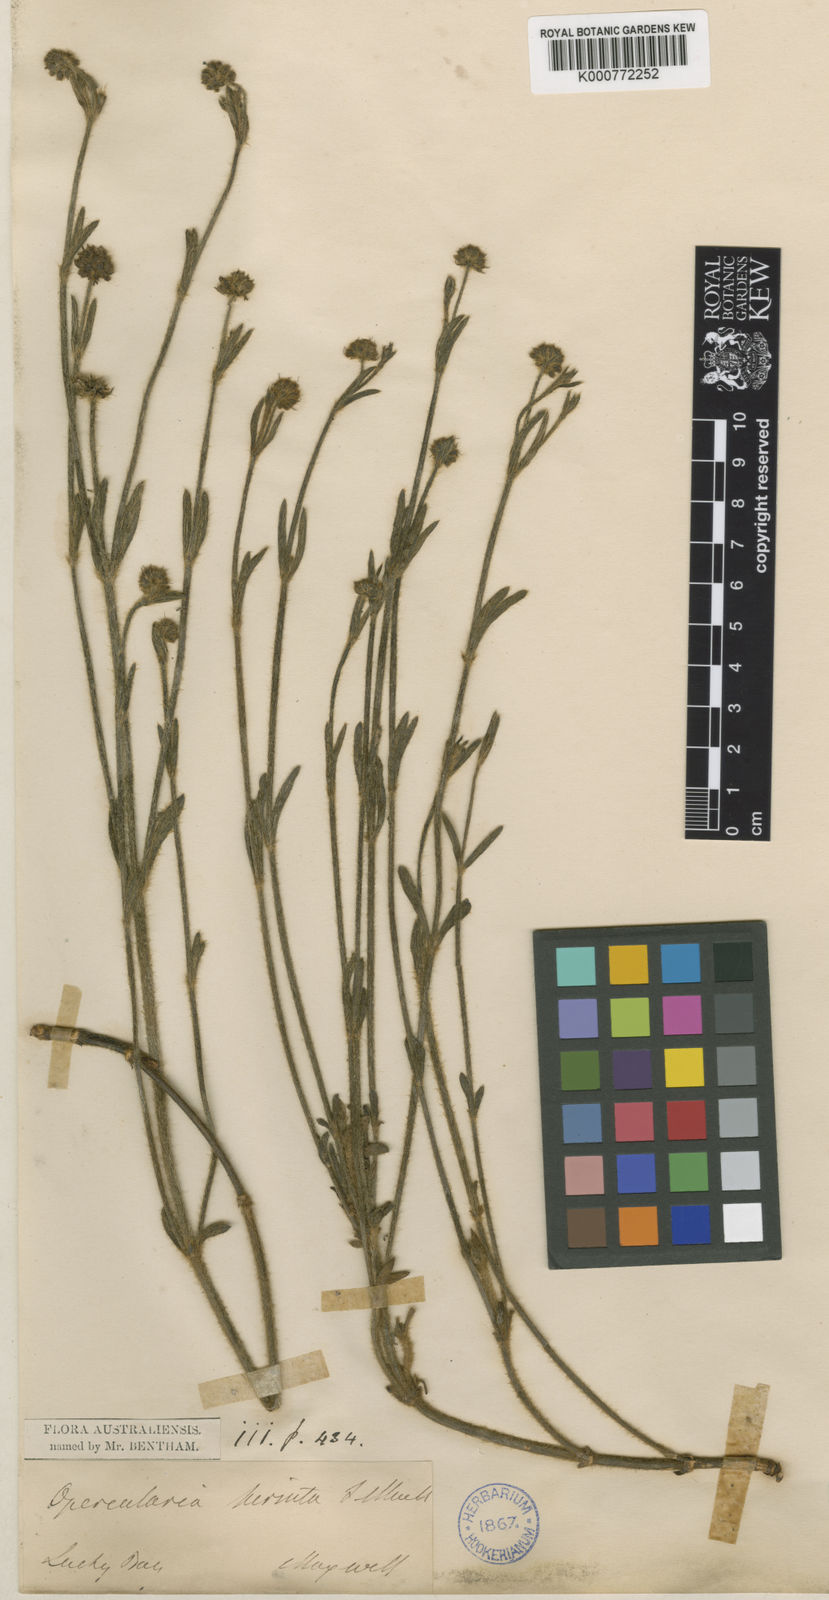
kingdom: Plantae
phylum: Tracheophyta
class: Magnoliopsida
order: Gentianales
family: Rubiaceae
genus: Opercularia
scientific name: Opercularia hirsuta
